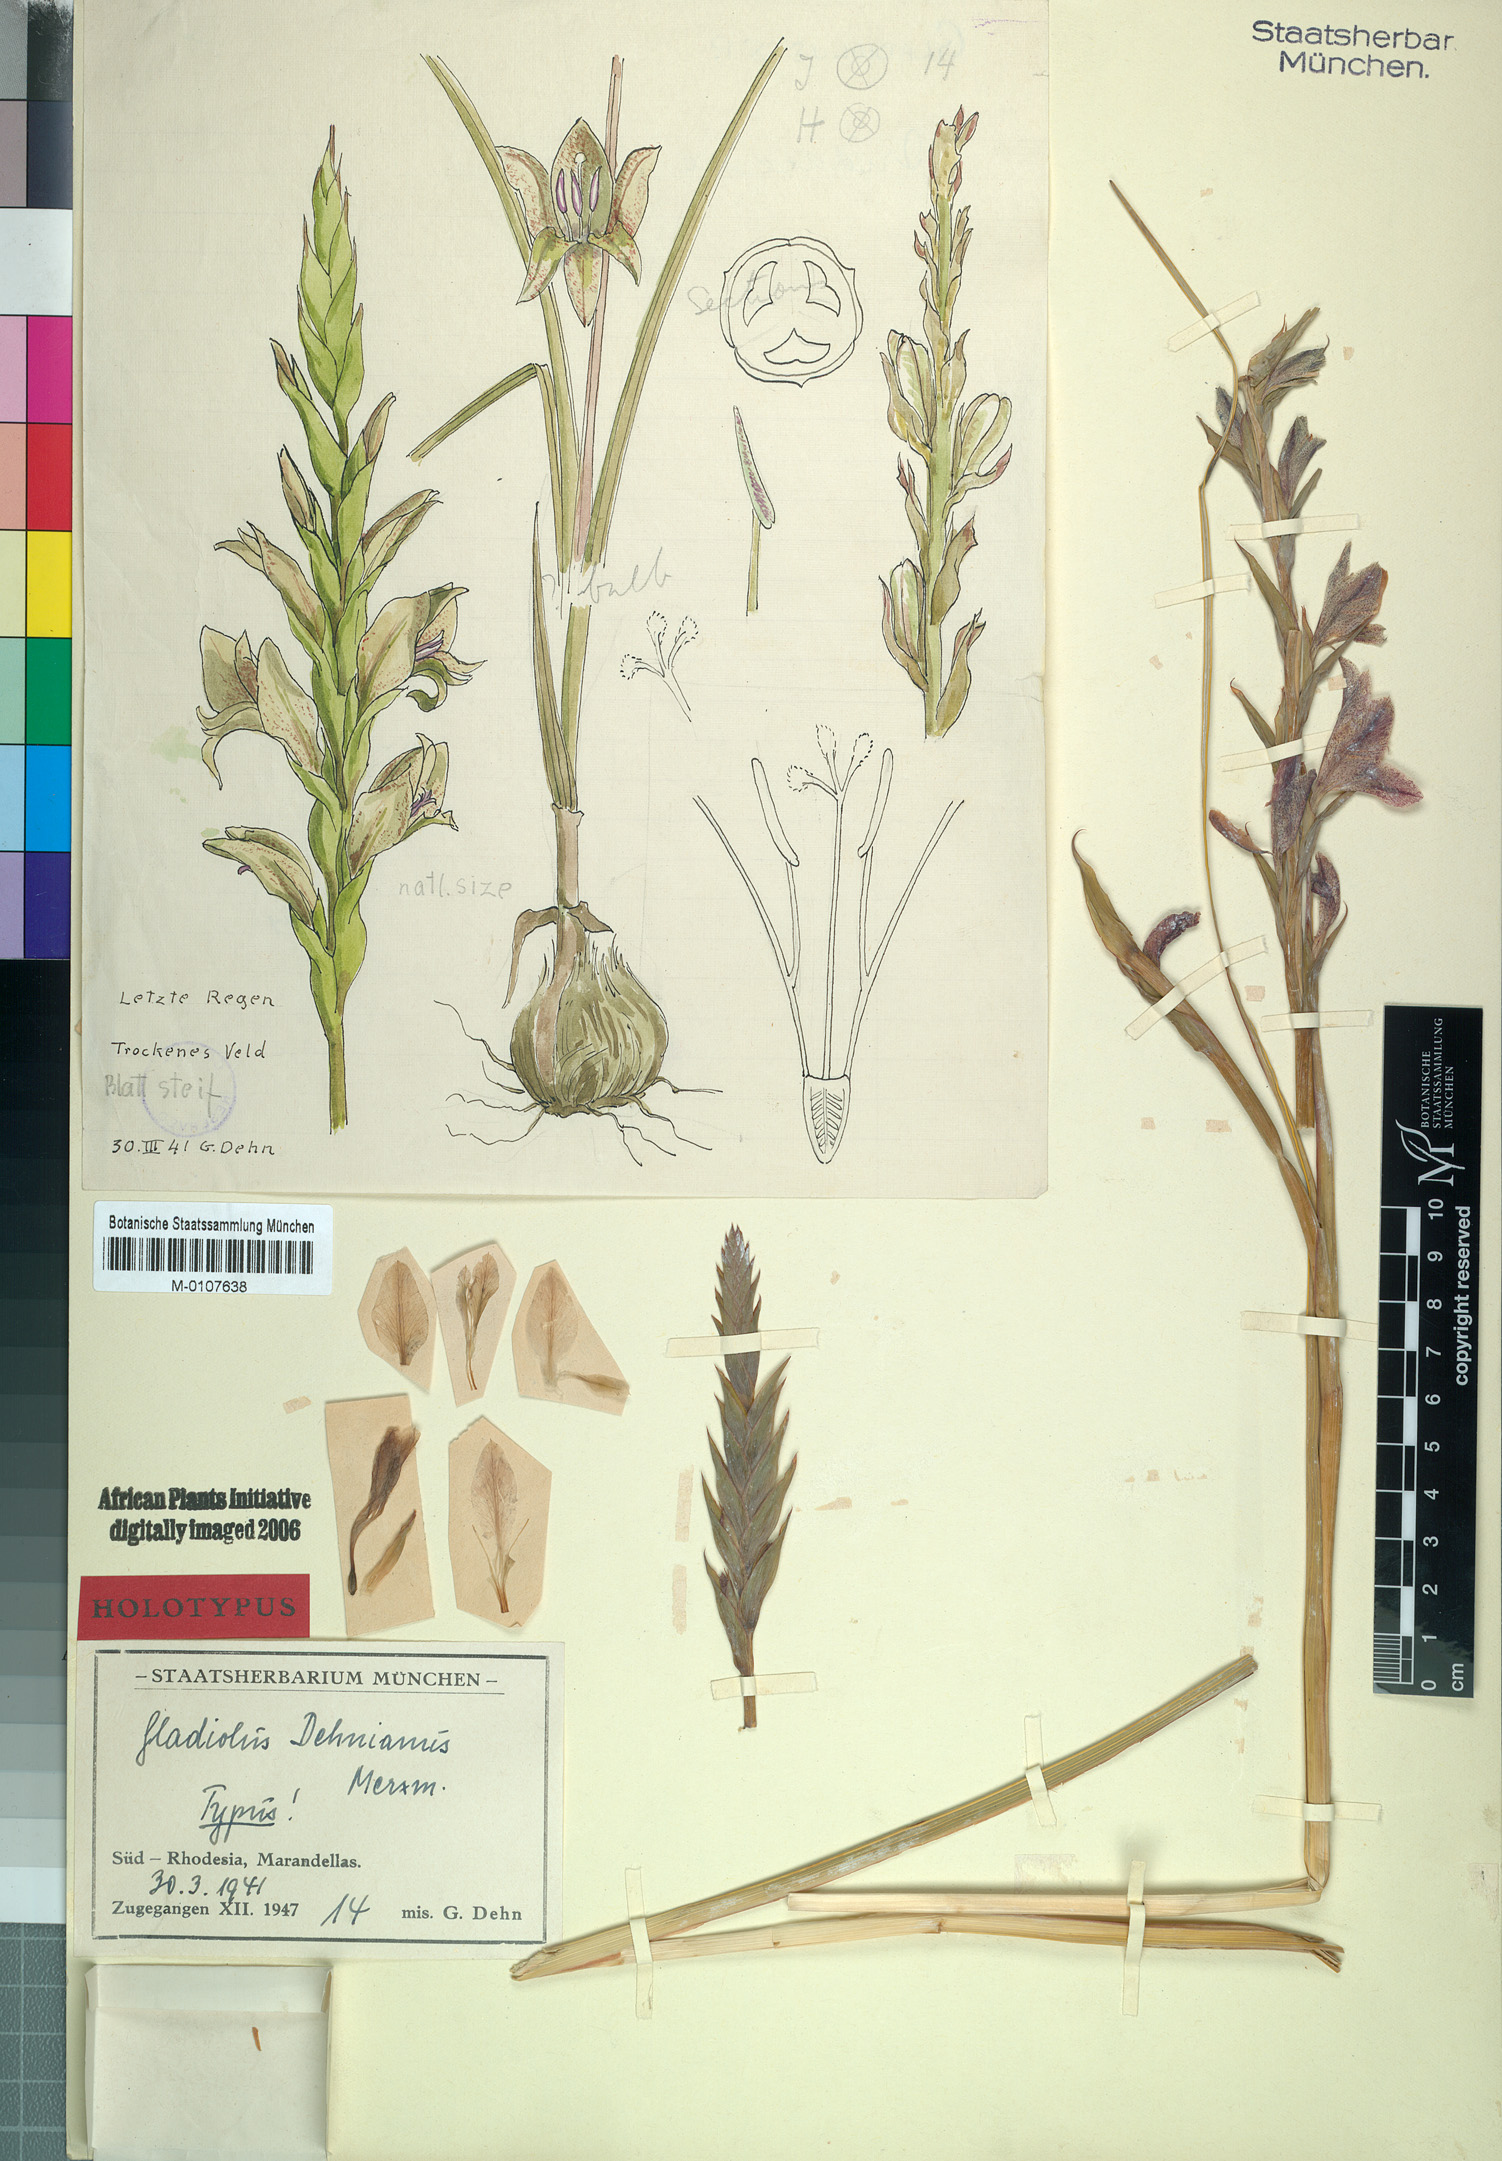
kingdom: Plantae
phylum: Tracheophyta
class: Liliopsida
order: Asparagales
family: Iridaceae
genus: Gladiolus
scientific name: Gladiolus elliotii
